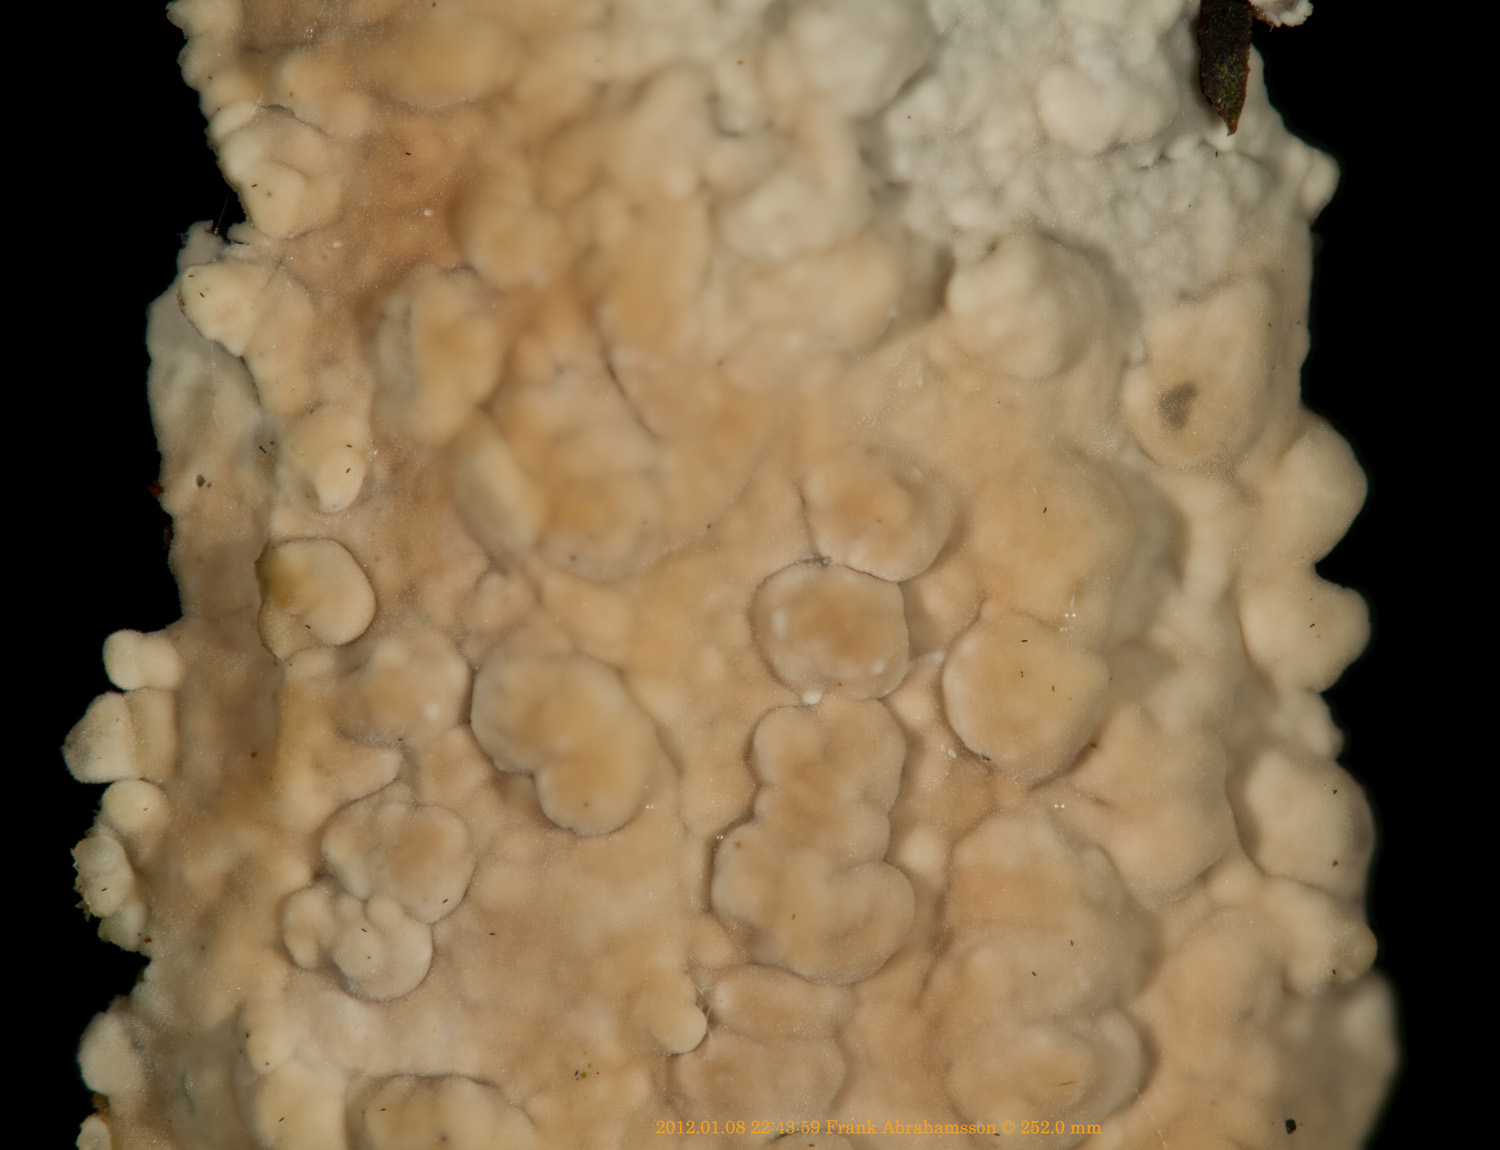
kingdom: Fungi
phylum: Basidiomycota
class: Agaricomycetes
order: Agaricales
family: Physalacriaceae
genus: Cylindrobasidium
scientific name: Cylindrobasidium evolvens
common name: sprækkehinde
